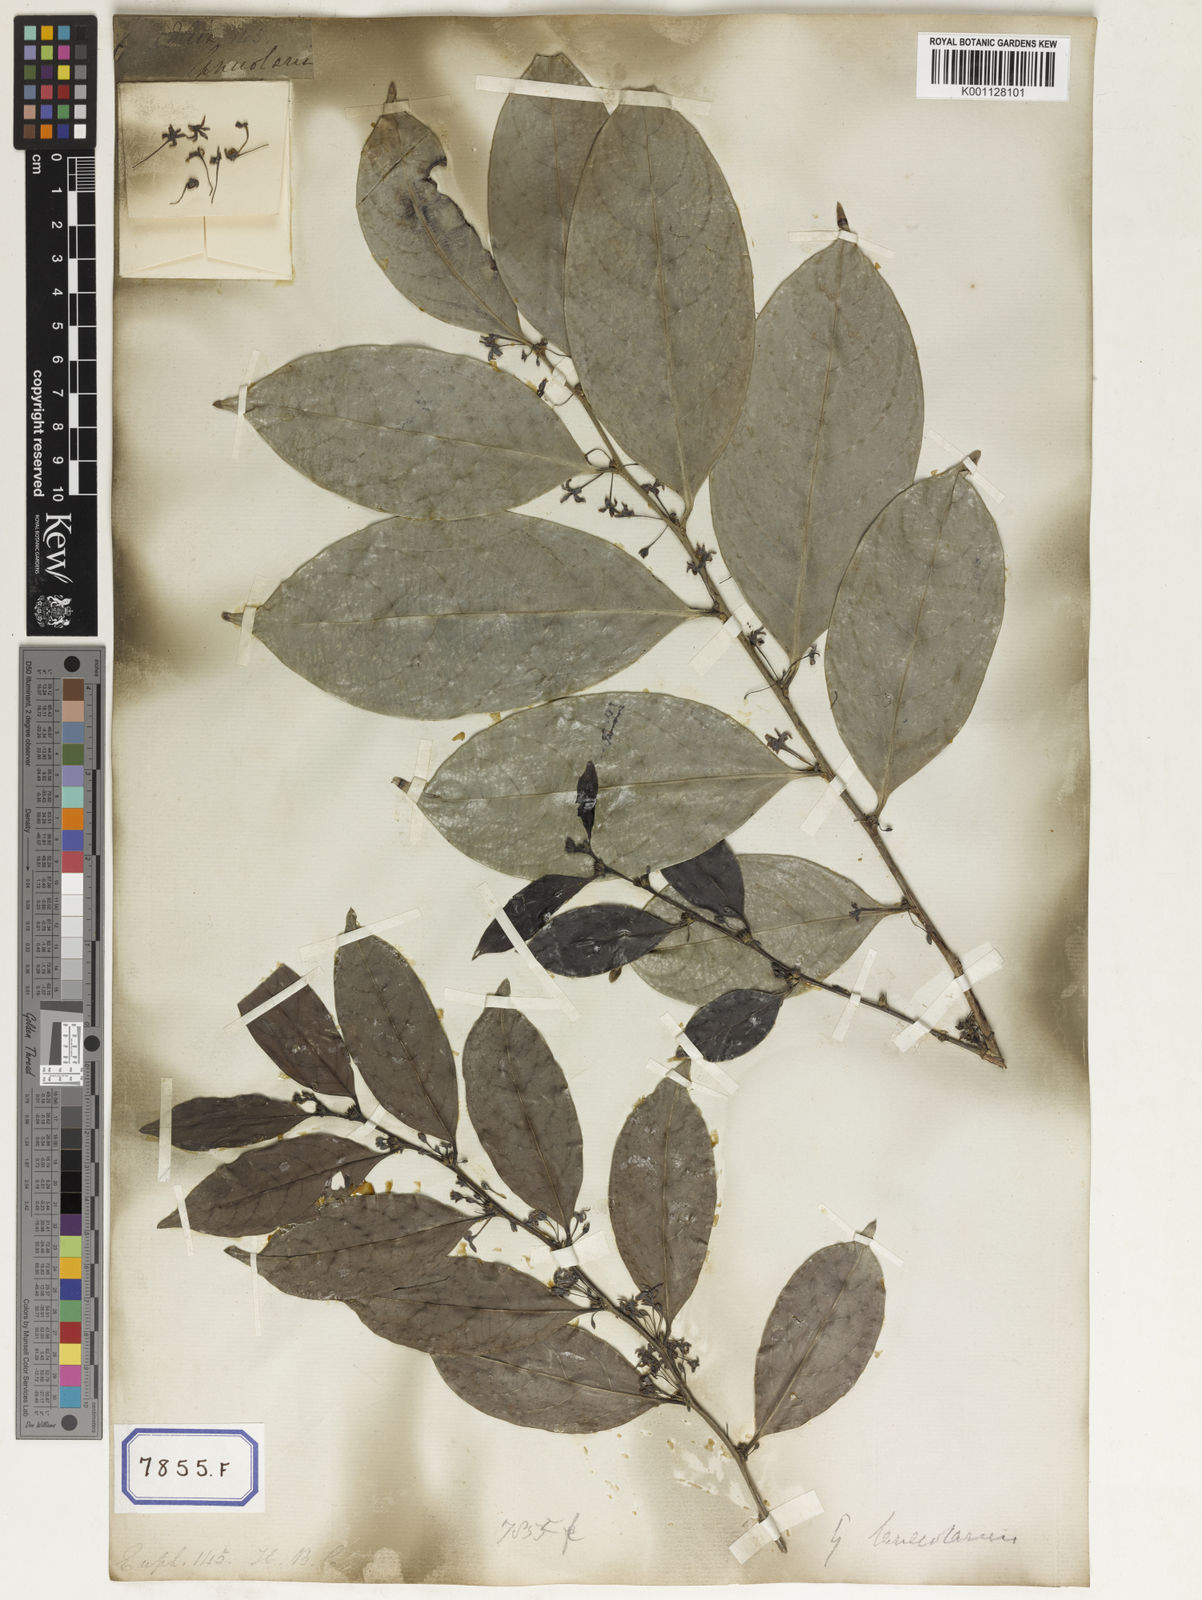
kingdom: Plantae
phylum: Tracheophyta
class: Magnoliopsida
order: Malpighiales
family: Euphorbiaceae
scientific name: Euphorbiaceae
